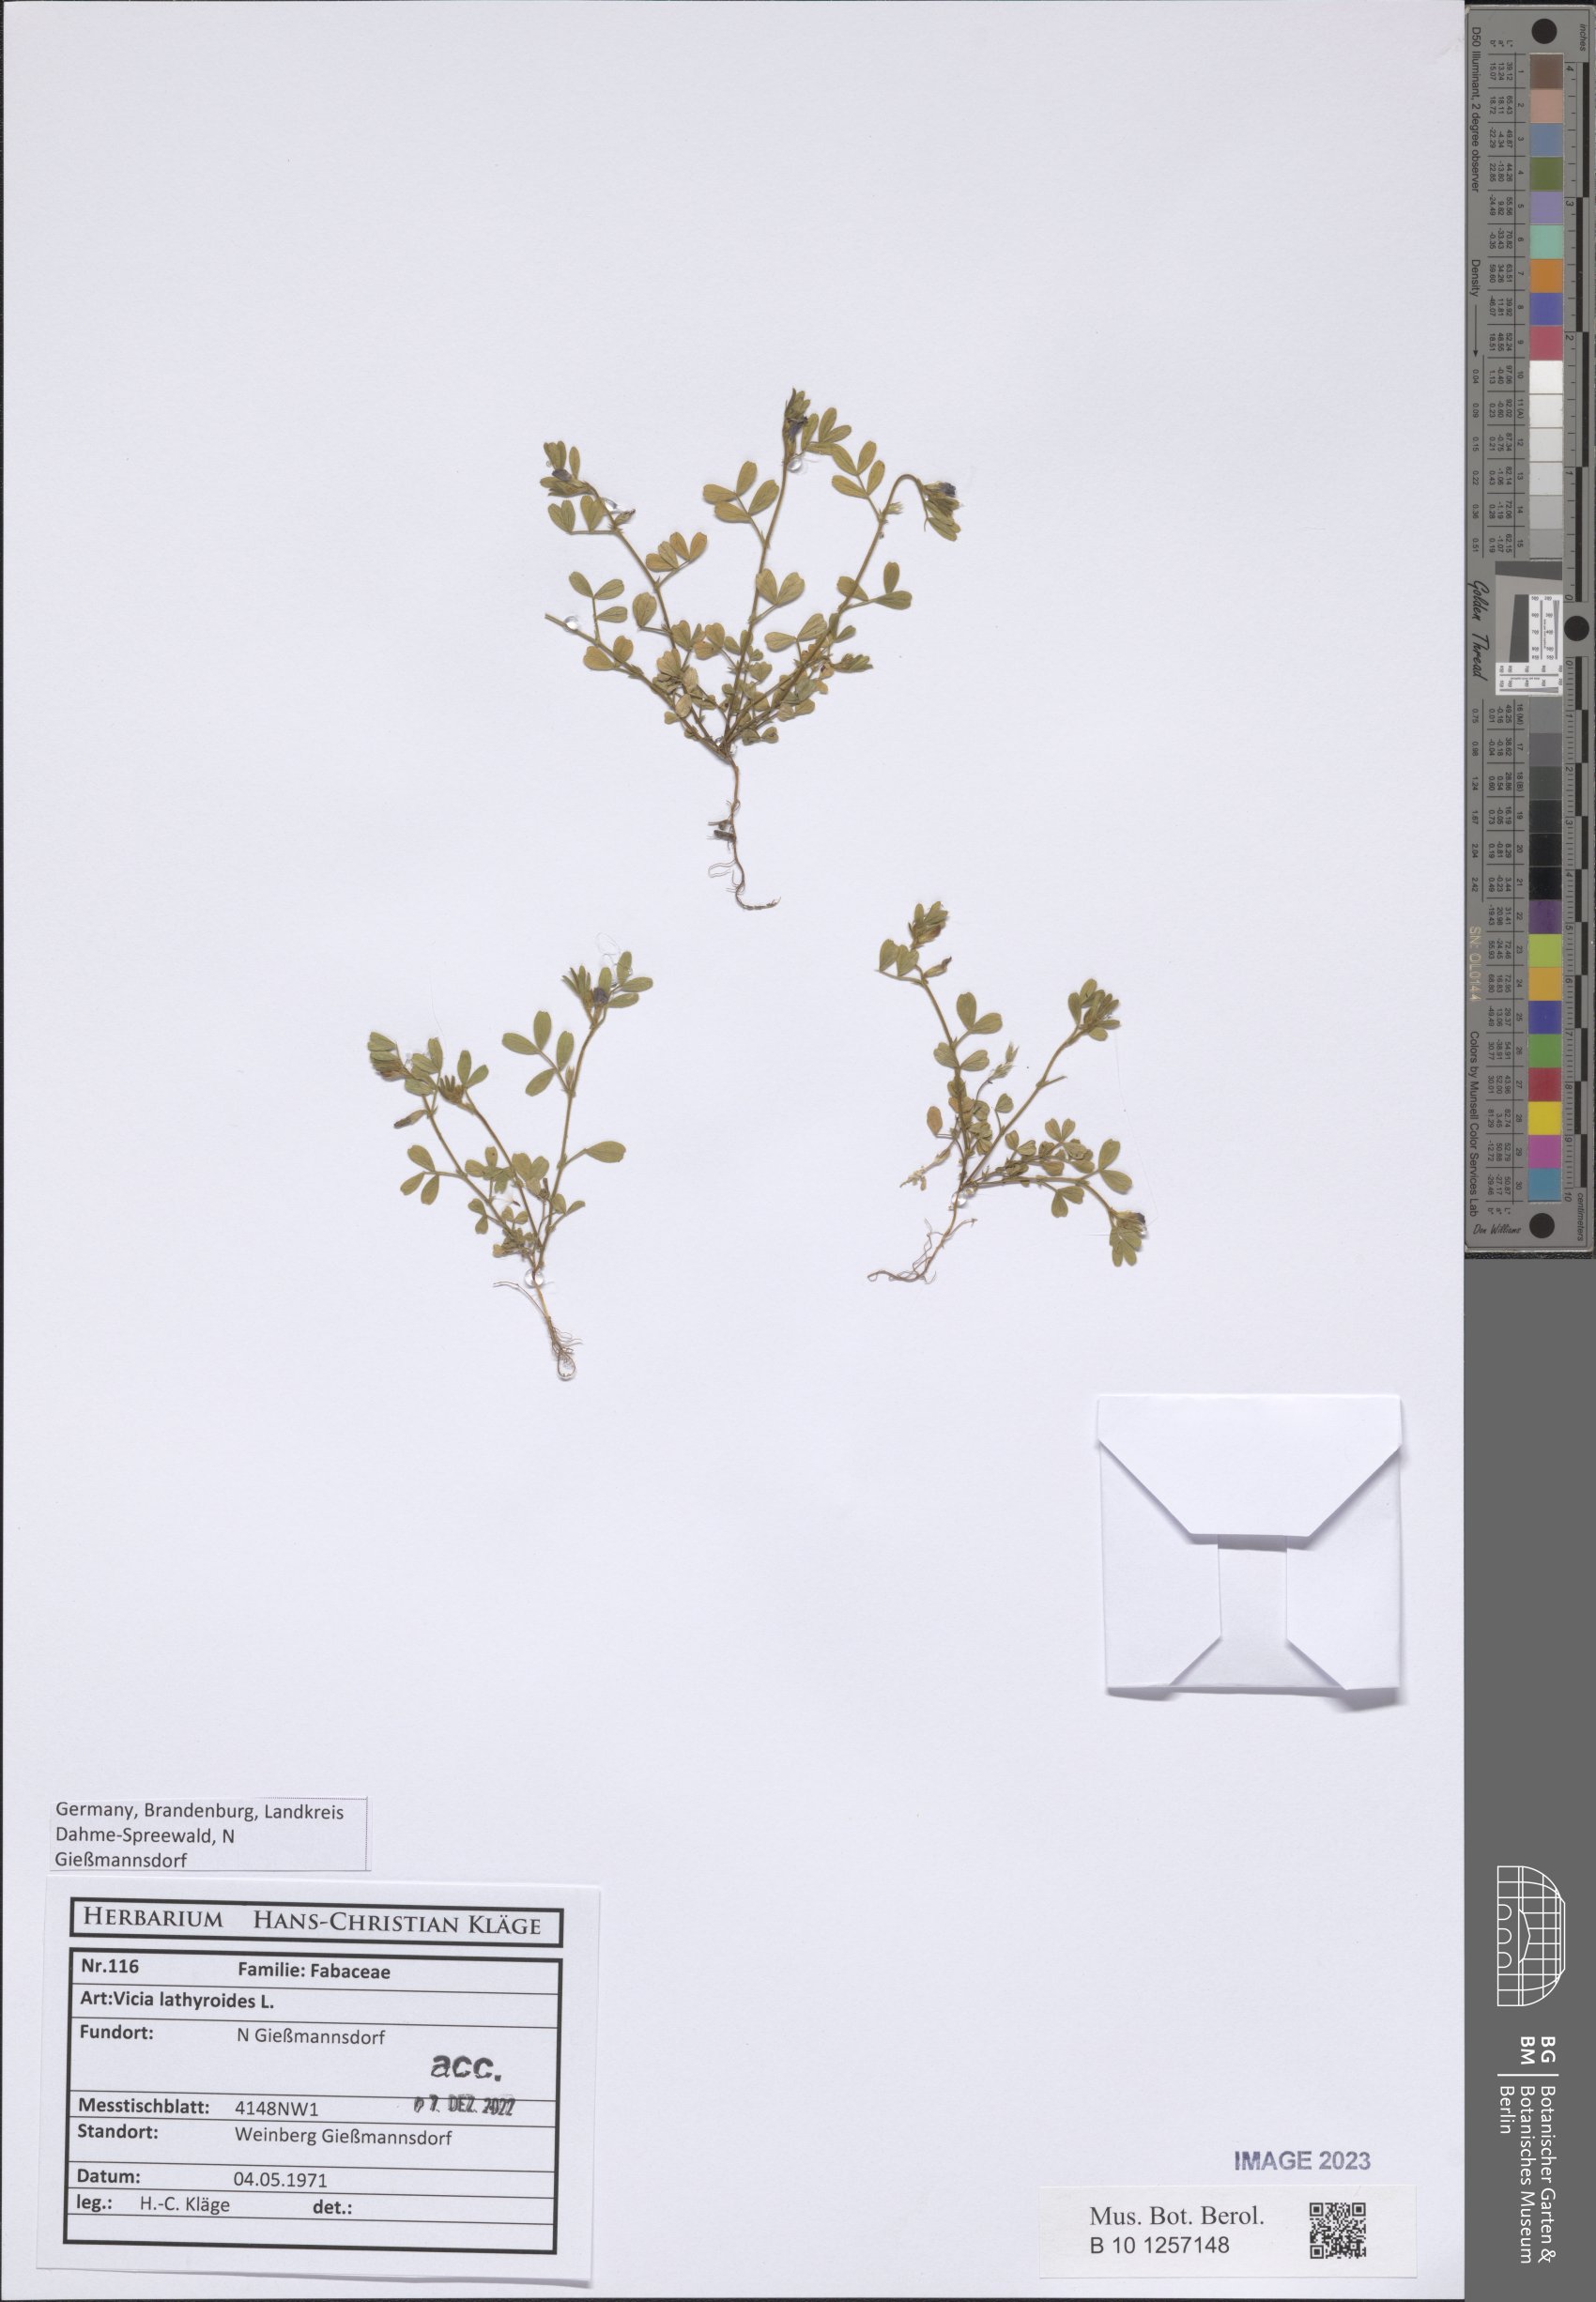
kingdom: Plantae
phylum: Tracheophyta
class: Magnoliopsida
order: Fabales
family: Fabaceae
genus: Vicia
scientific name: Vicia lathyroides
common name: Spring vetch
